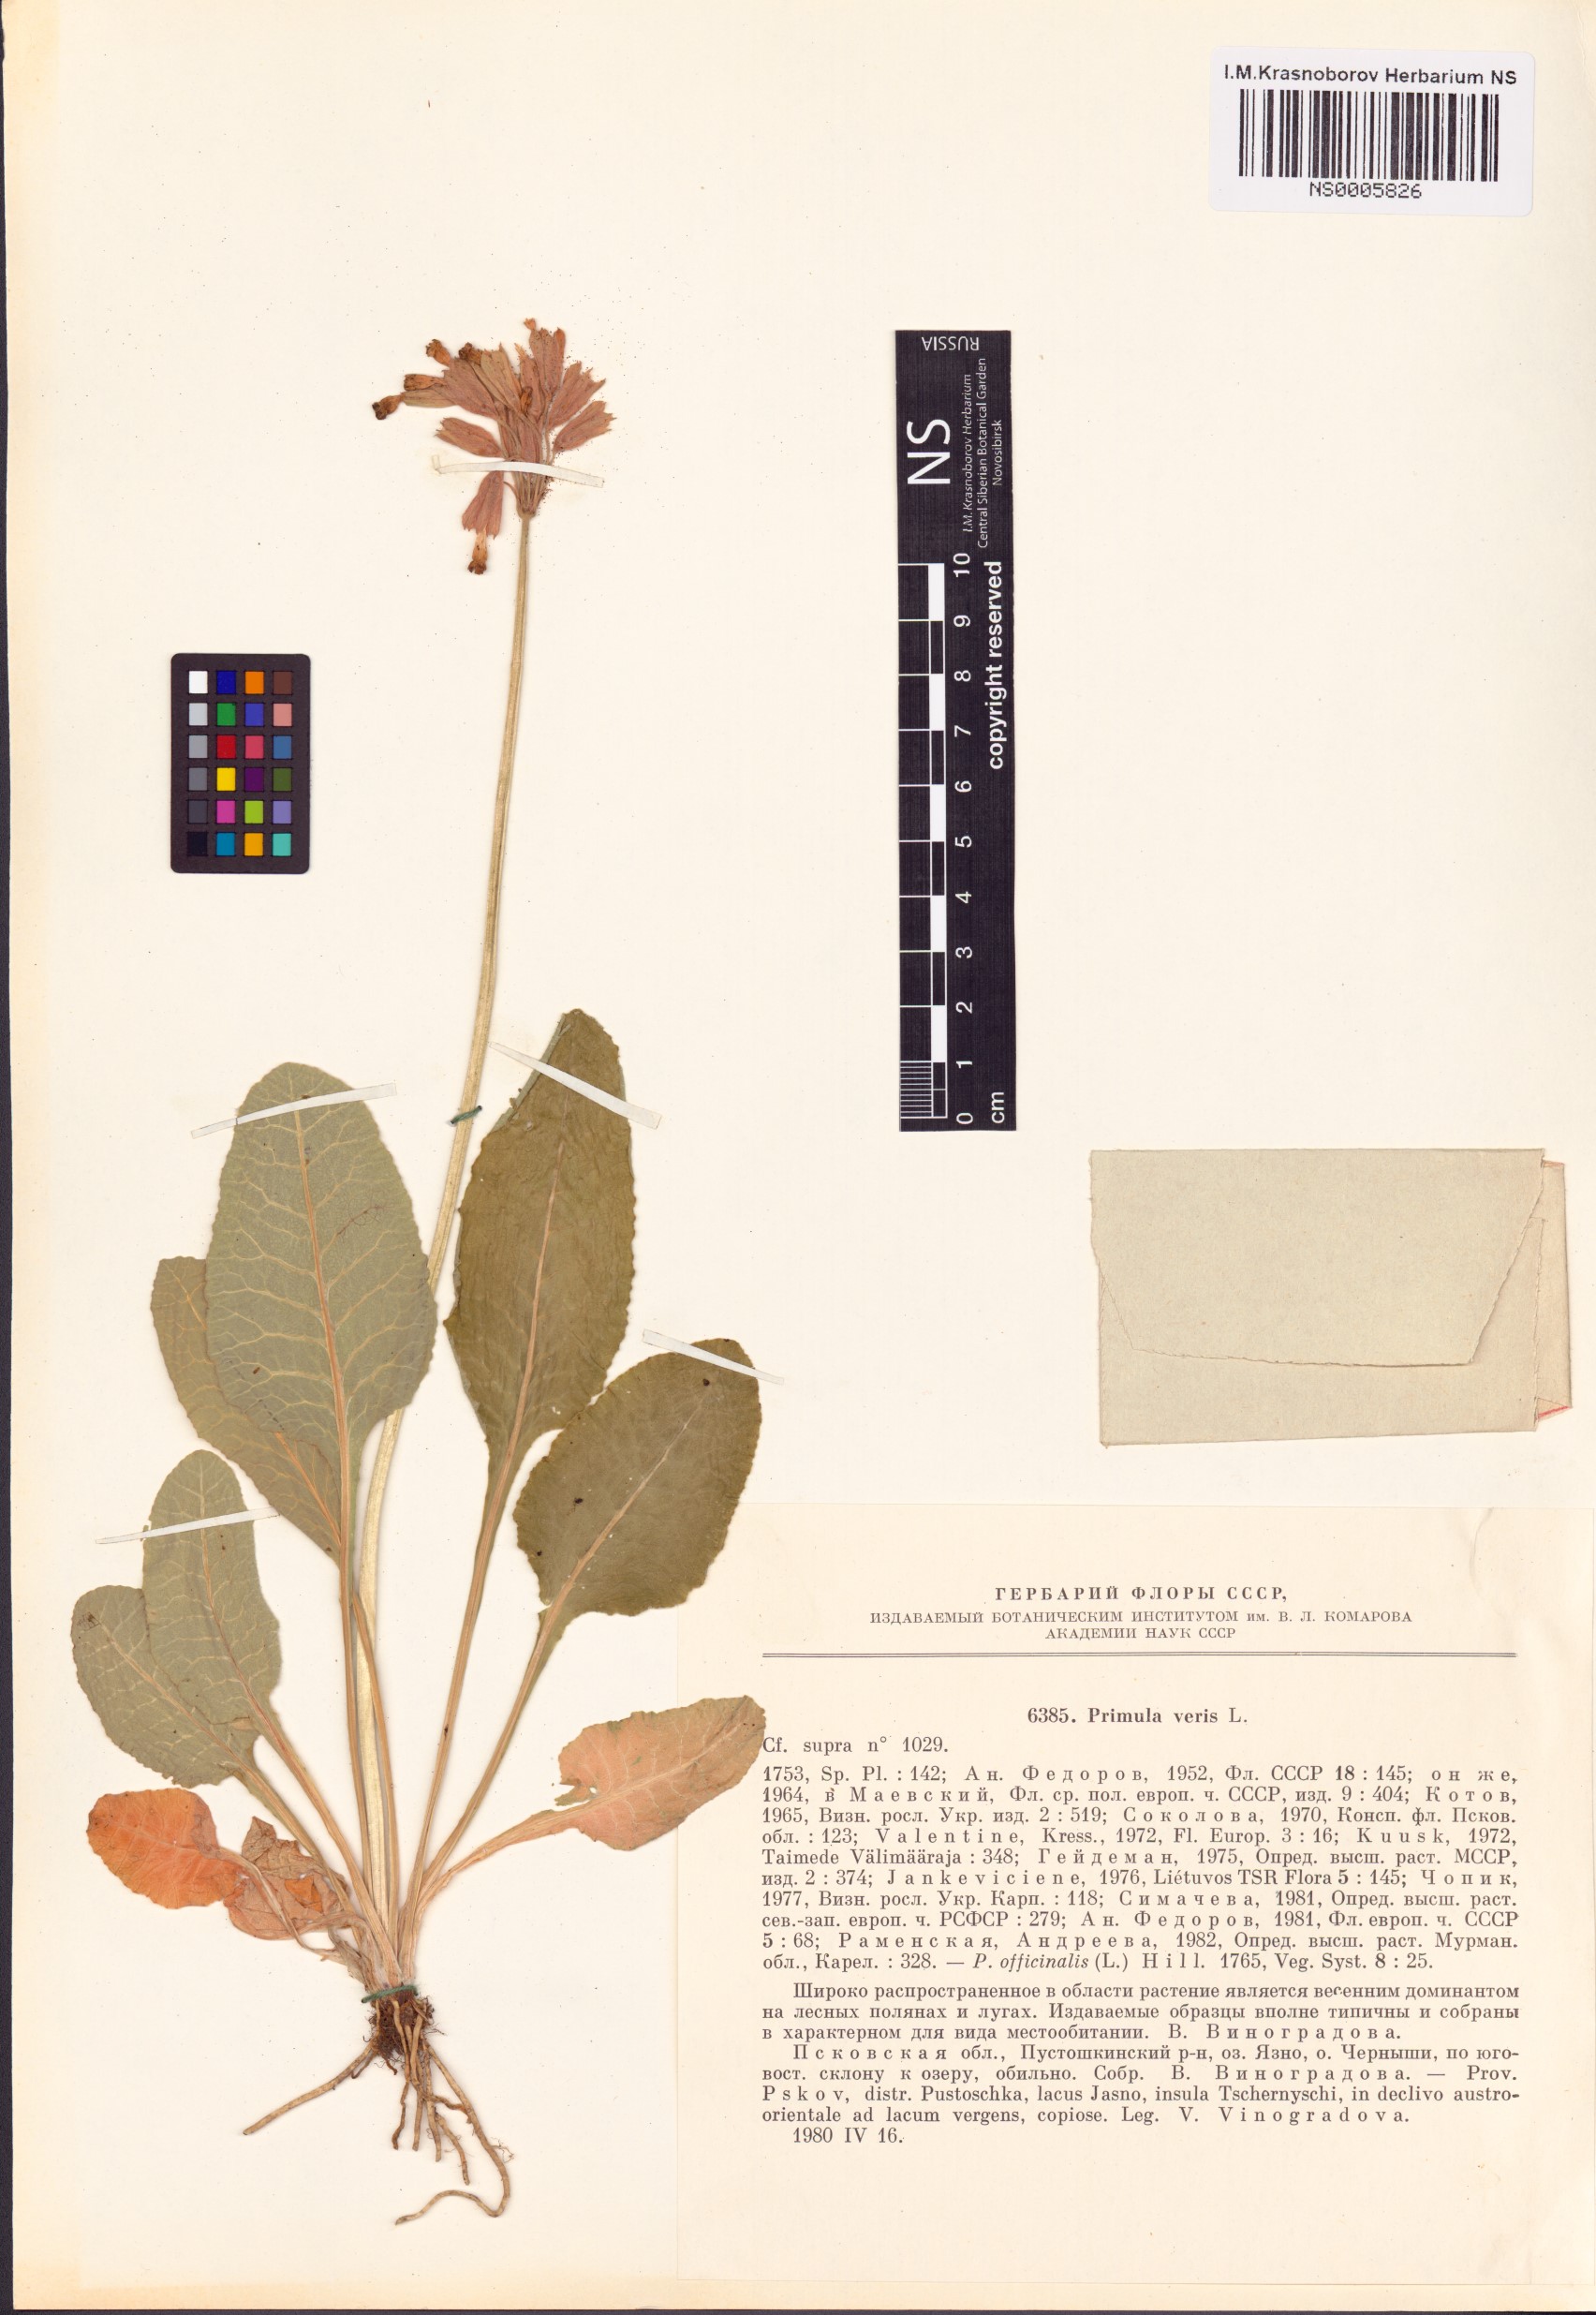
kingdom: Plantae
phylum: Tracheophyta
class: Magnoliopsida
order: Ericales
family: Primulaceae
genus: Primula
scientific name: Primula veris
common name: Cowslip
